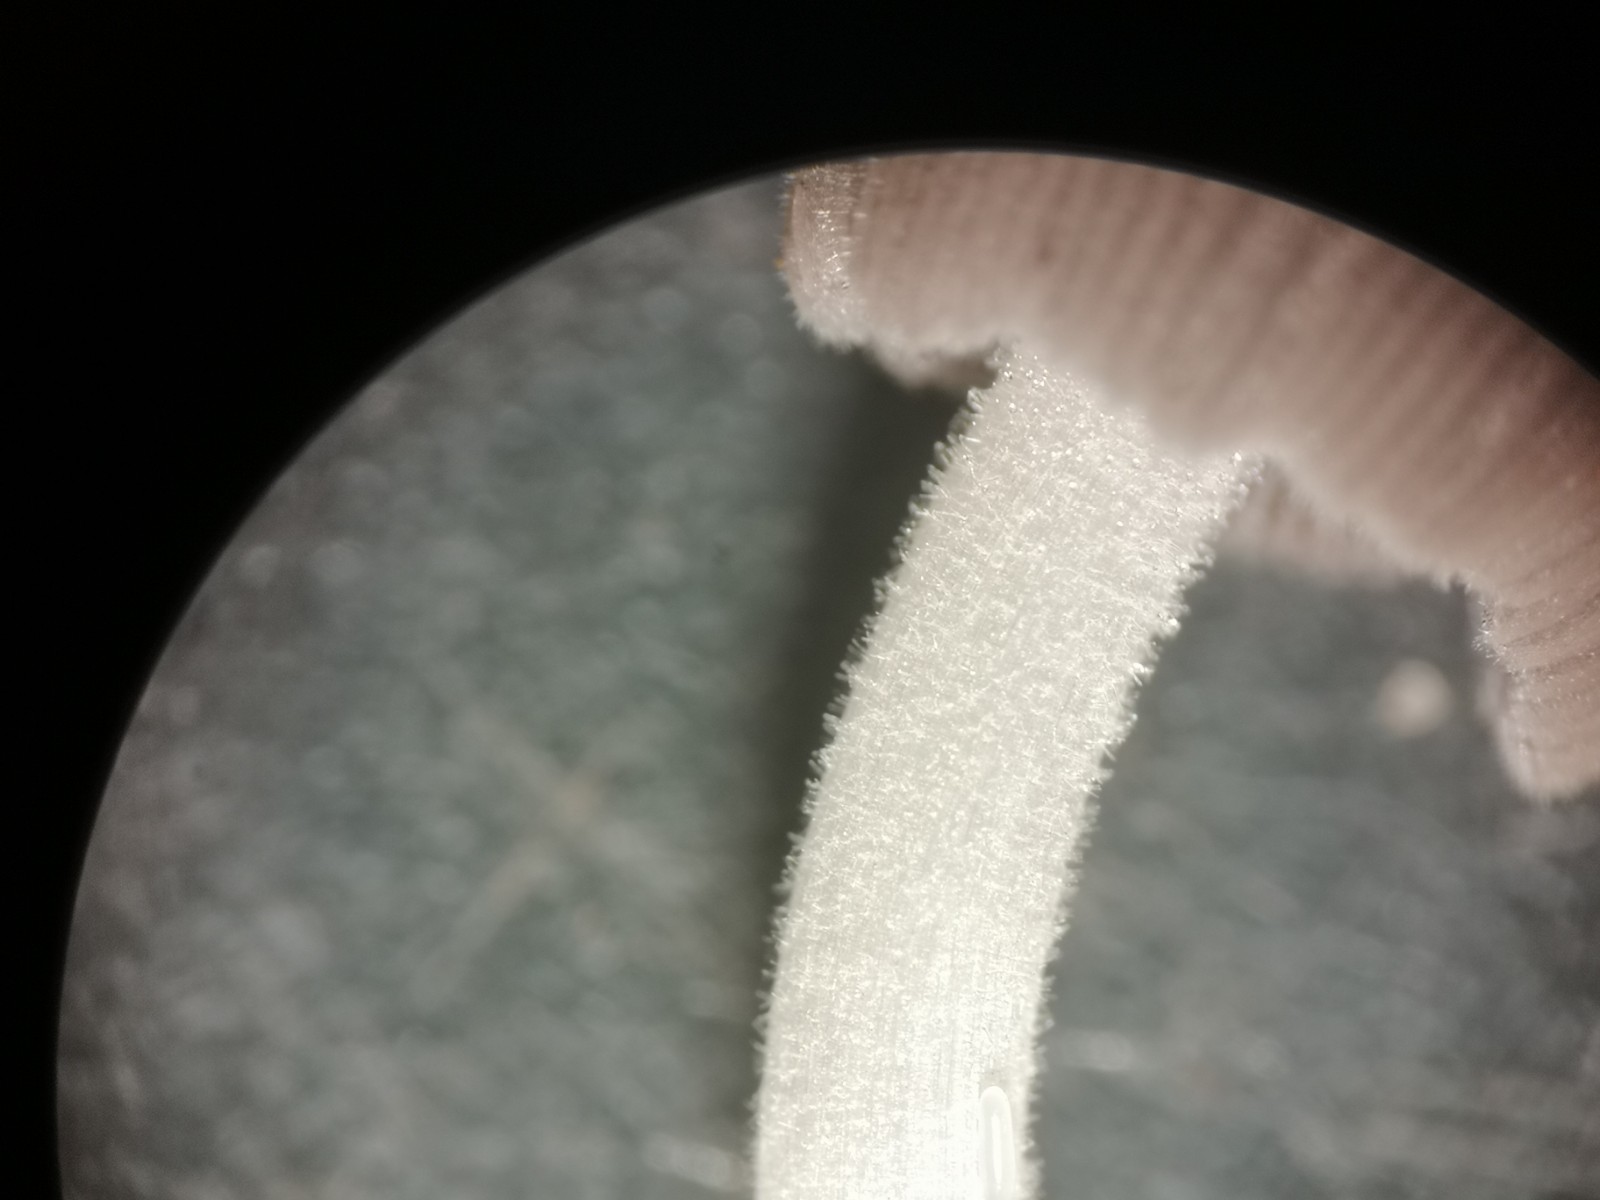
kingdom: Fungi
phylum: Basidiomycota
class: Agaricomycetes
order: Agaricales
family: Psathyrellaceae
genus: Tulosesus
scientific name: Tulosesus subimpatiens
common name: tøvende blækhat
